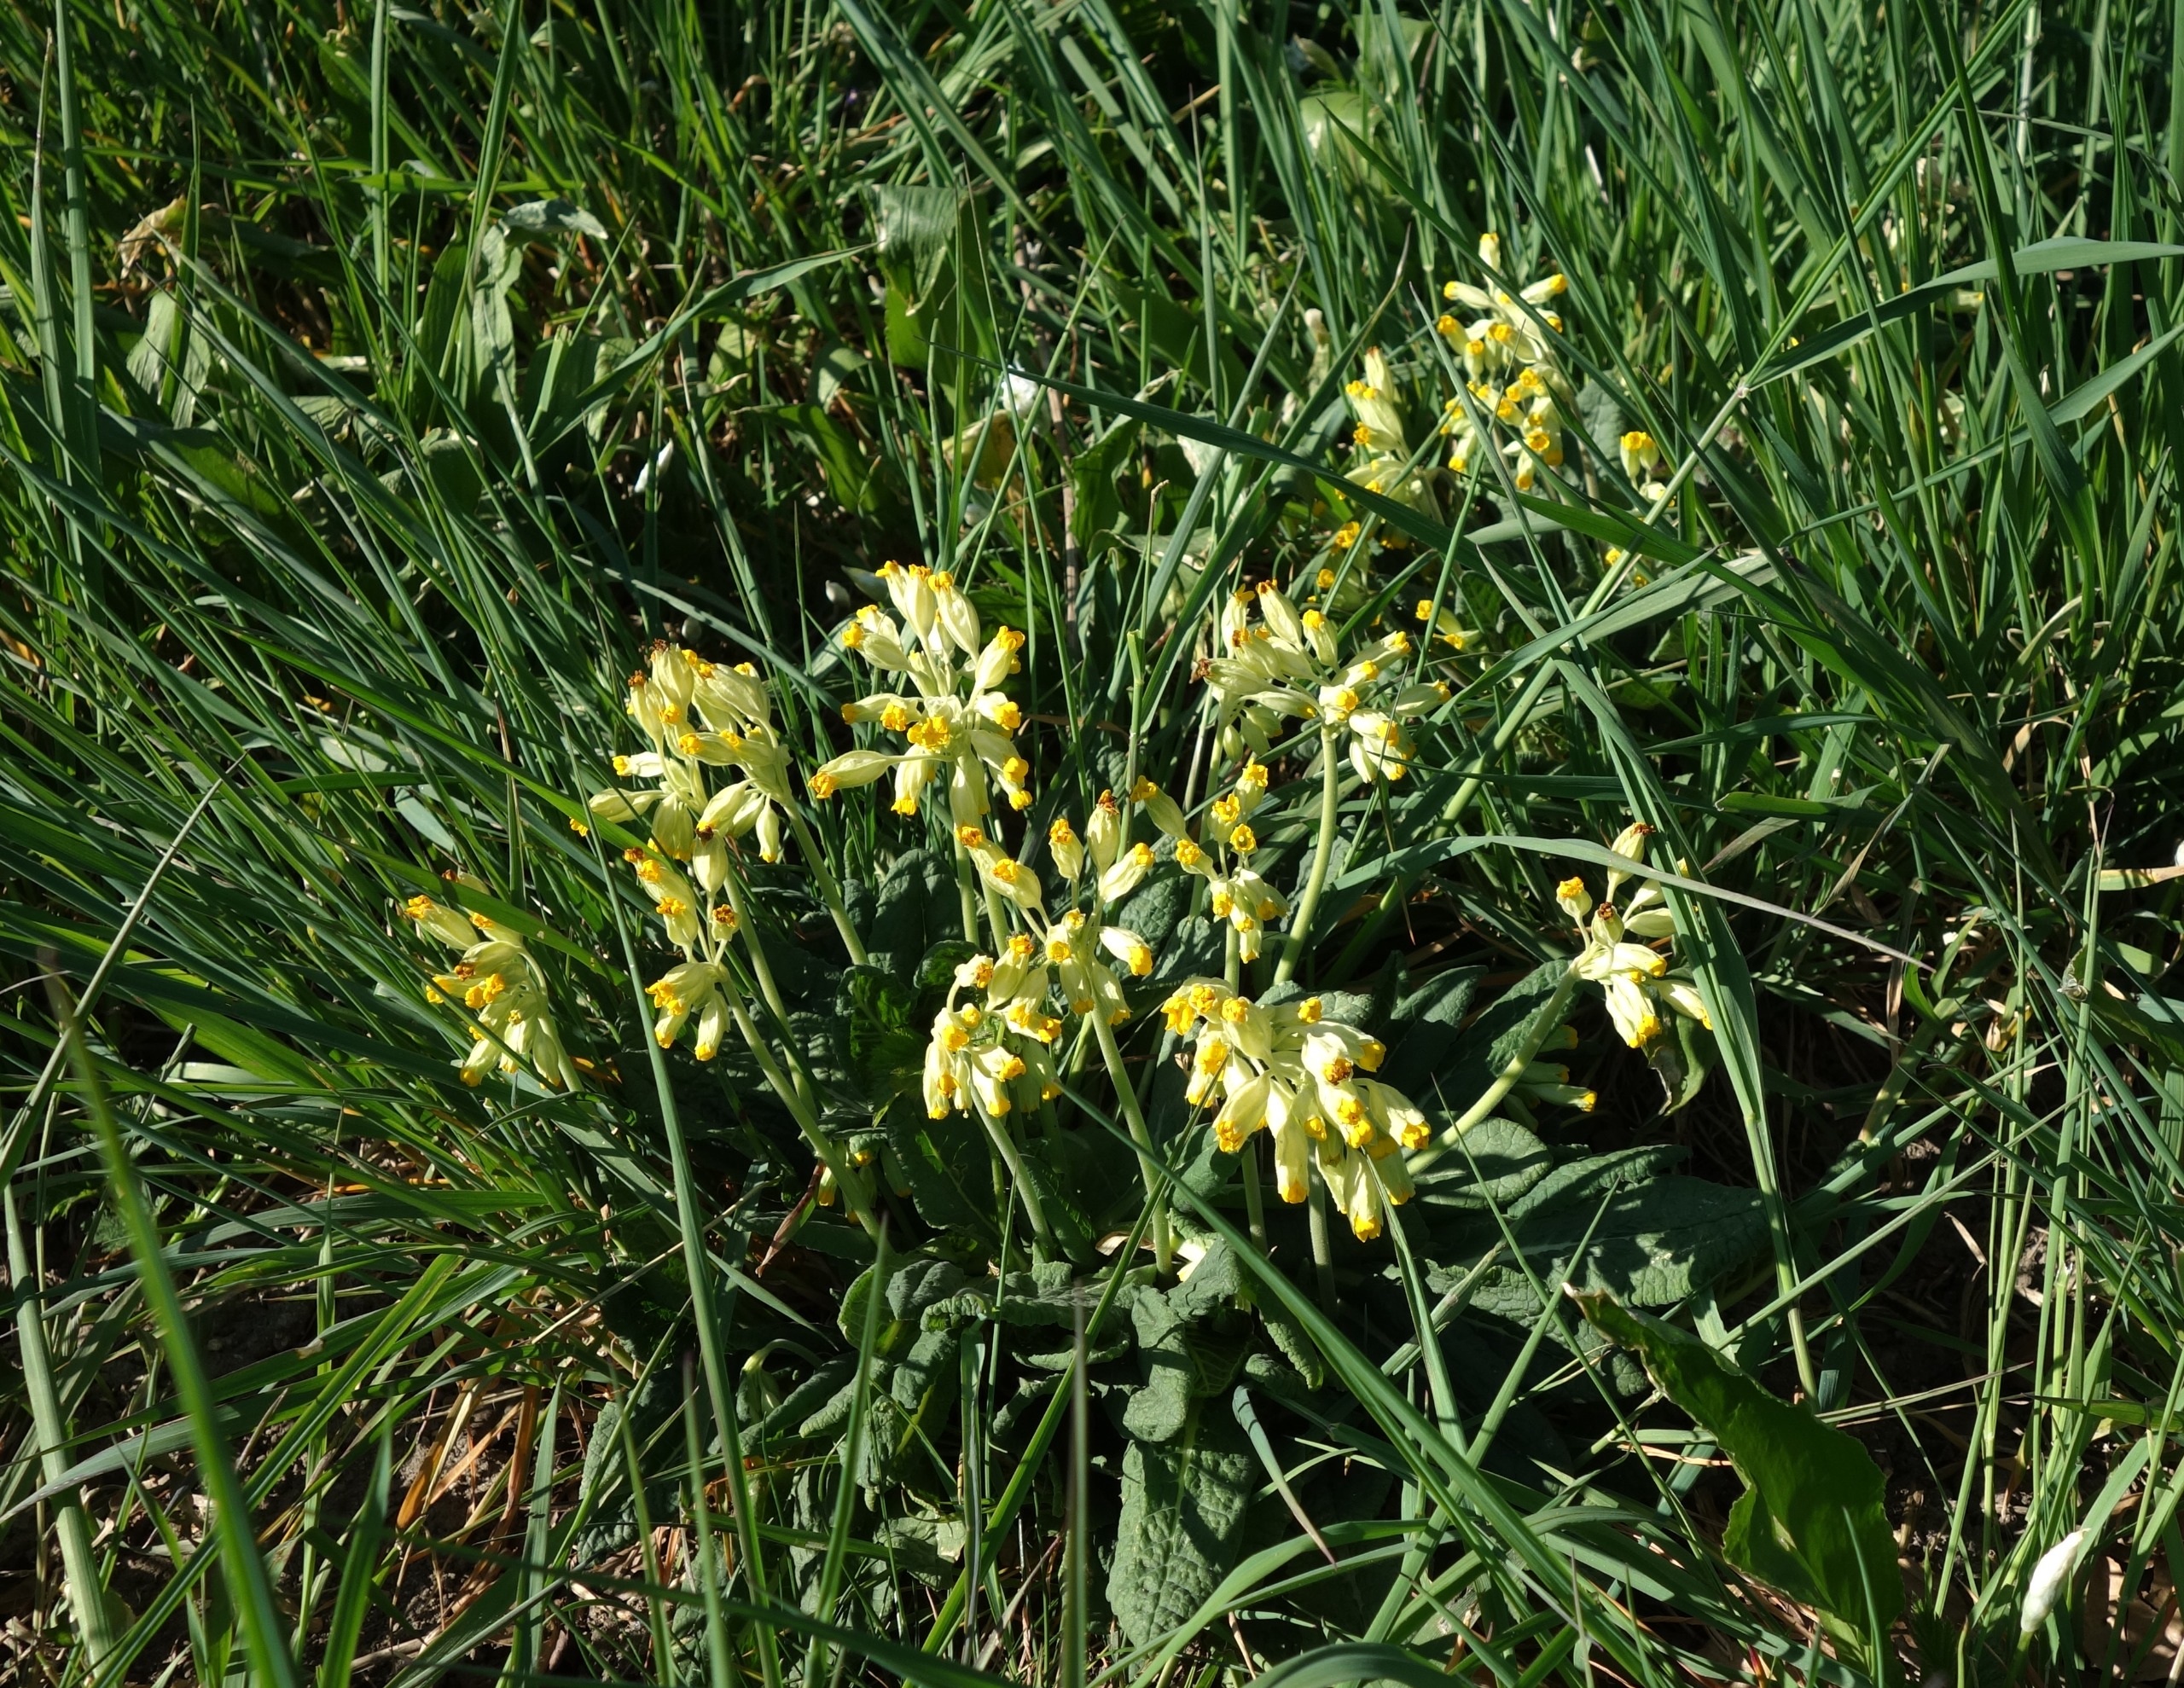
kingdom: Plantae
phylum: Tracheophyta
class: Magnoliopsida
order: Ericales
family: Primulaceae
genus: Primula
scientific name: Primula veris
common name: Hulkravet kodriver
